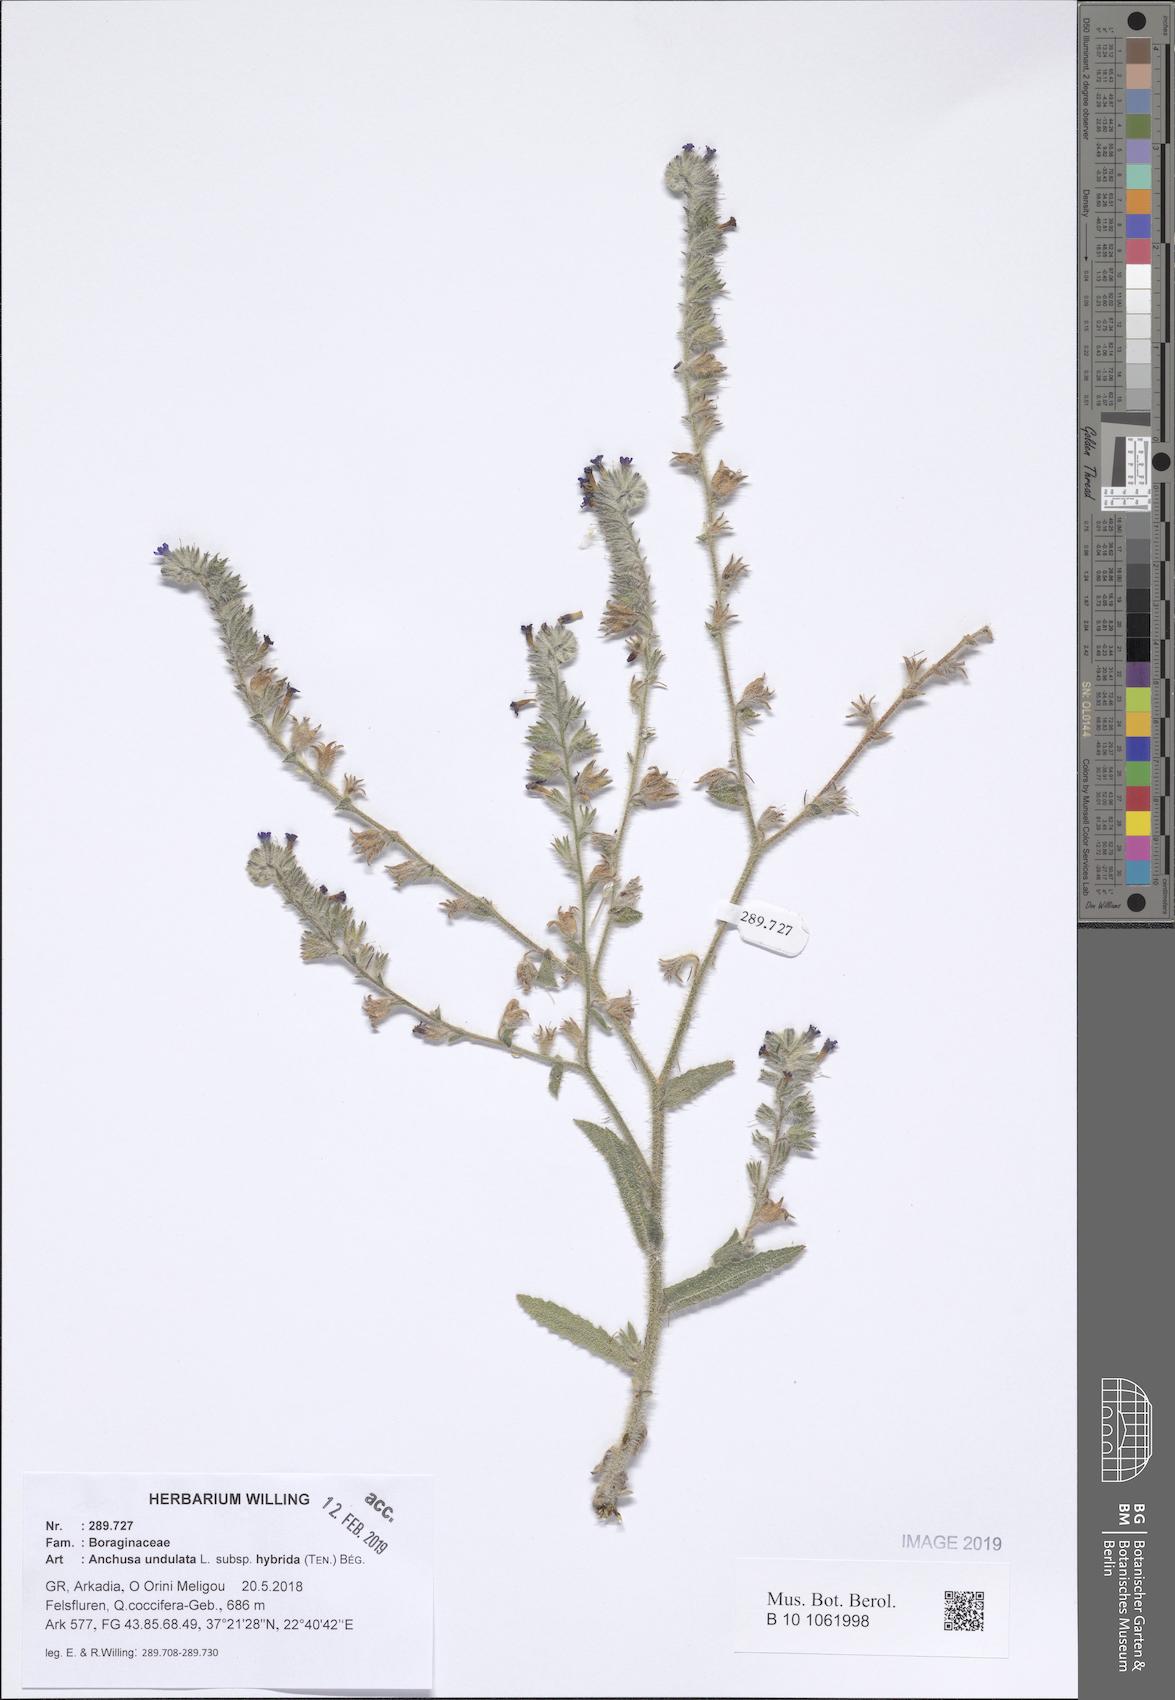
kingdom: Plantae
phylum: Tracheophyta
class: Magnoliopsida
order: Boraginales
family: Boraginaceae
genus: Anchusa
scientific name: Anchusa undulata
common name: Undulate alkanet
